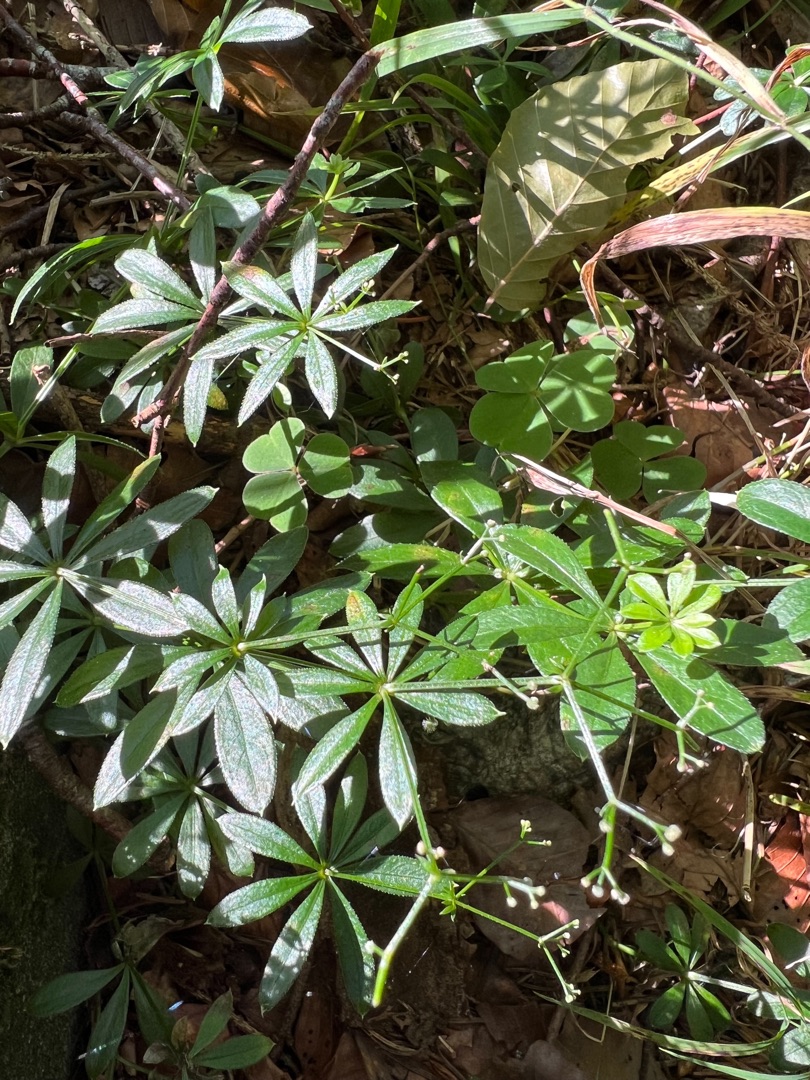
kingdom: Plantae
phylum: Tracheophyta
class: Magnoliopsida
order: Gentianales
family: Rubiaceae
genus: Galium
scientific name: Galium odoratum
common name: Skovmærke
